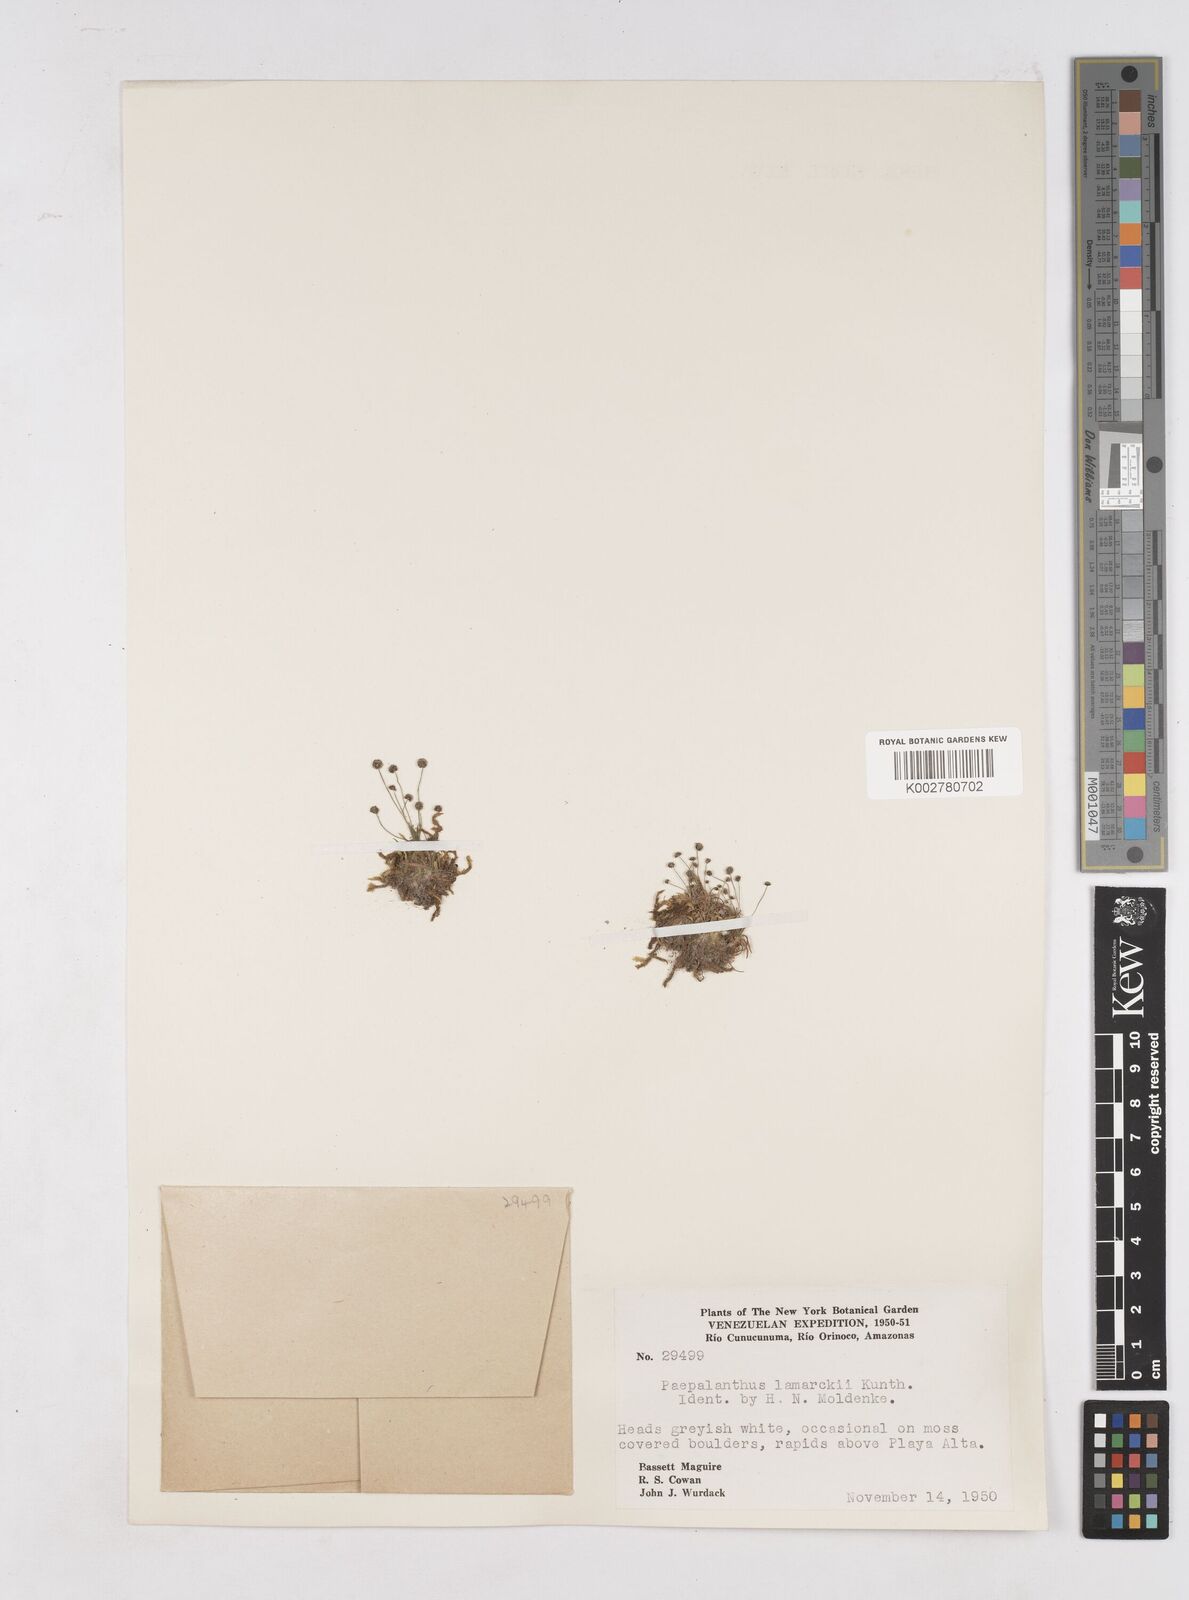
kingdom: Plantae
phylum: Tracheophyta
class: Liliopsida
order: Poales
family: Eriocaulaceae
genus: Paepalanthus
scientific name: Paepalanthus lamarckii
